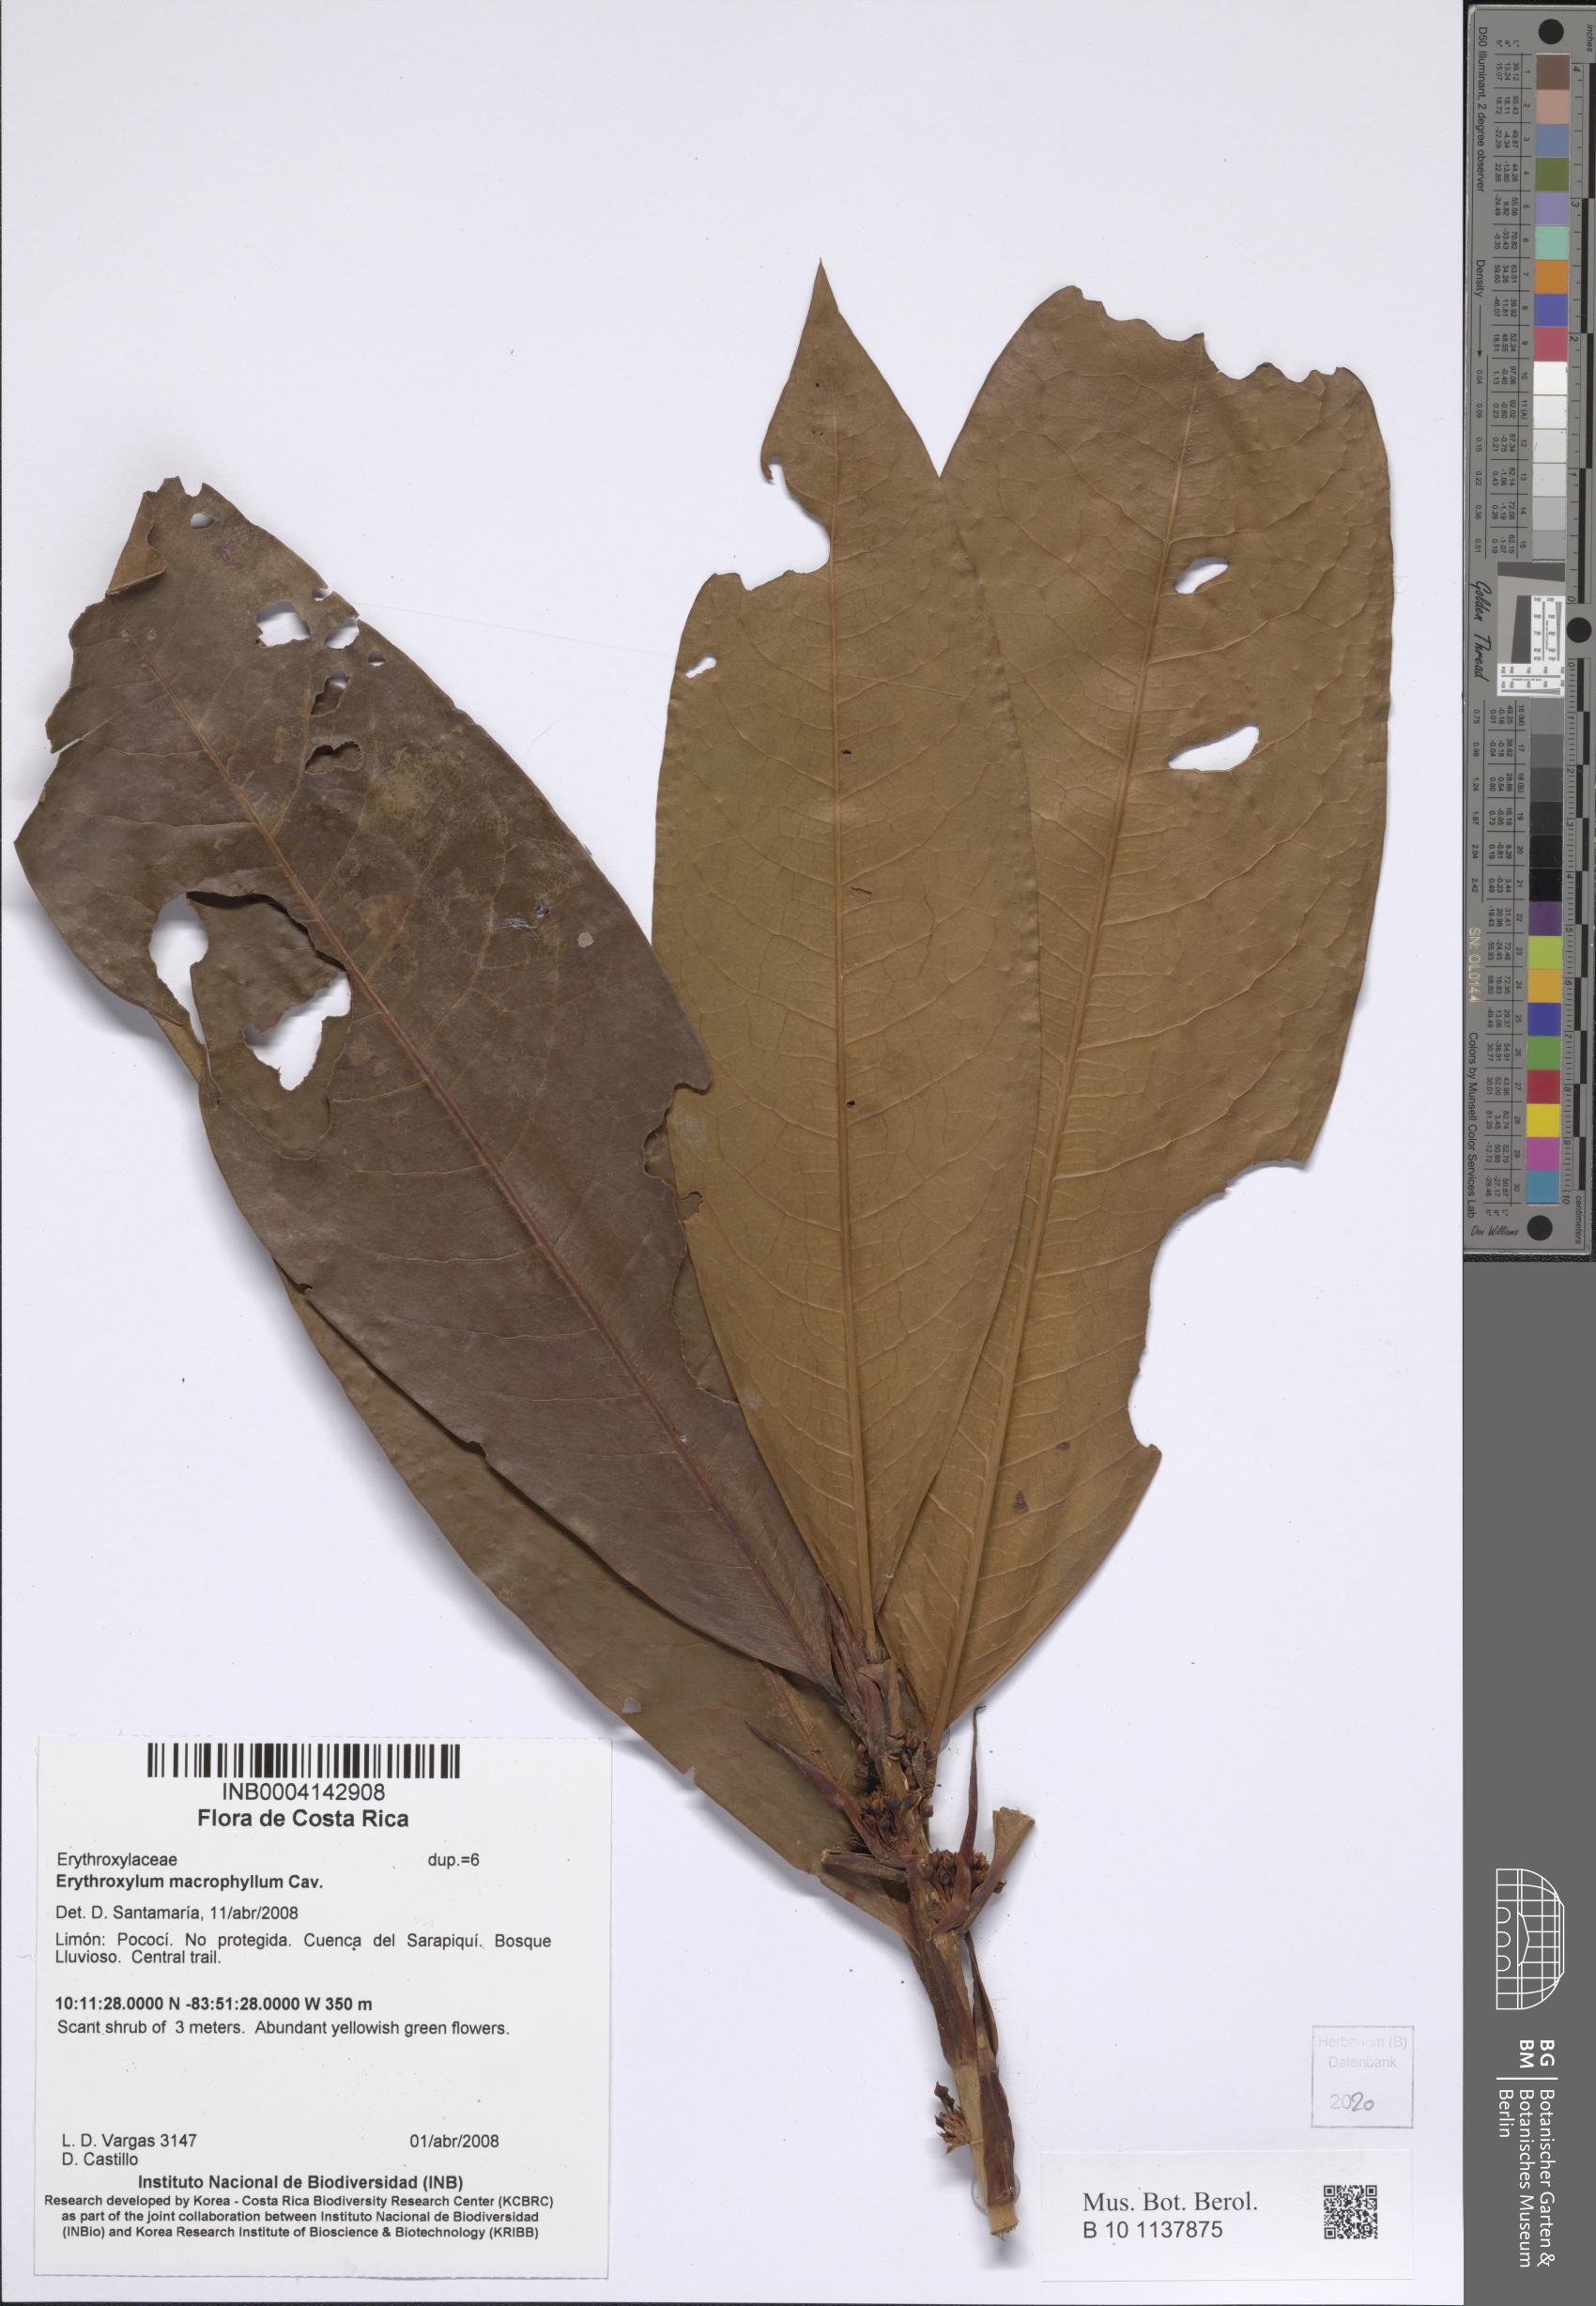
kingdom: Plantae
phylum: Tracheophyta
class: Magnoliopsida
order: Malpighiales
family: Erythroxylaceae
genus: Erythroxylum
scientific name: Erythroxylum macrophyllum
